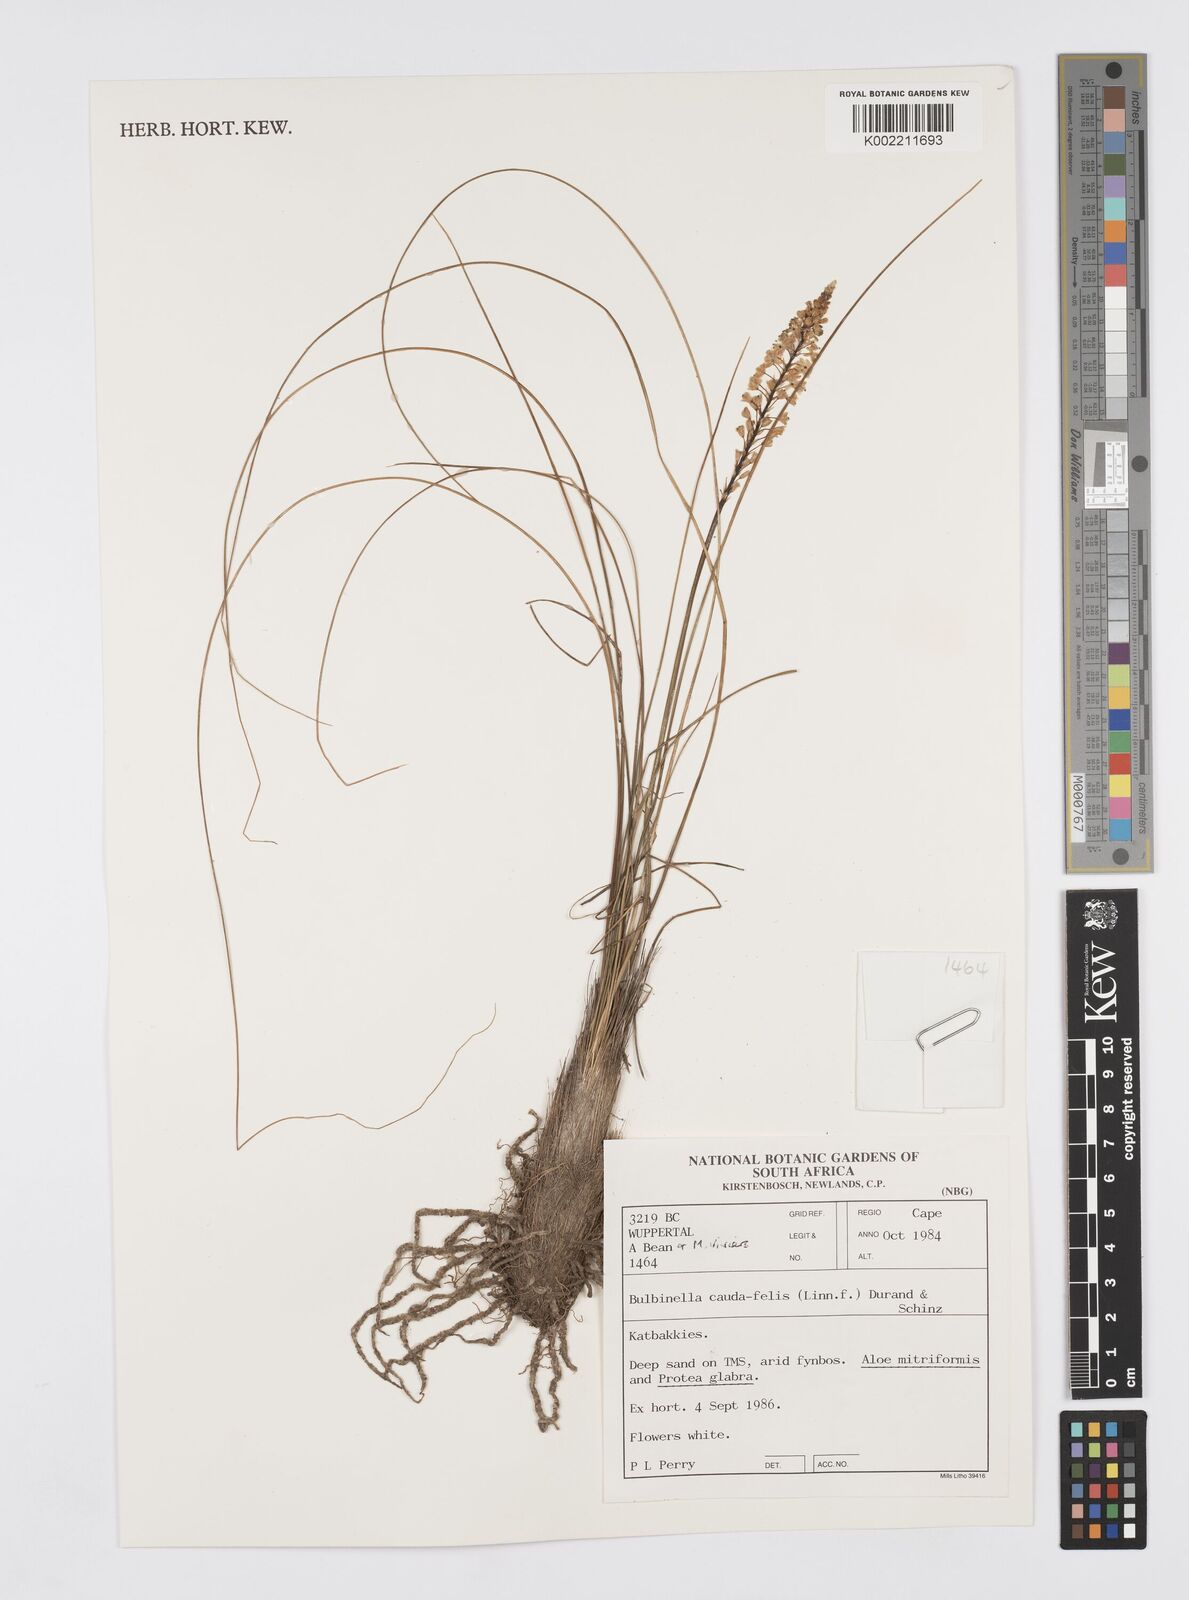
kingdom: Plantae
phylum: Tracheophyta
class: Liliopsida
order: Asparagales
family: Asphodelaceae
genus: Bulbinella
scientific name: Bulbinella cauda-felis
